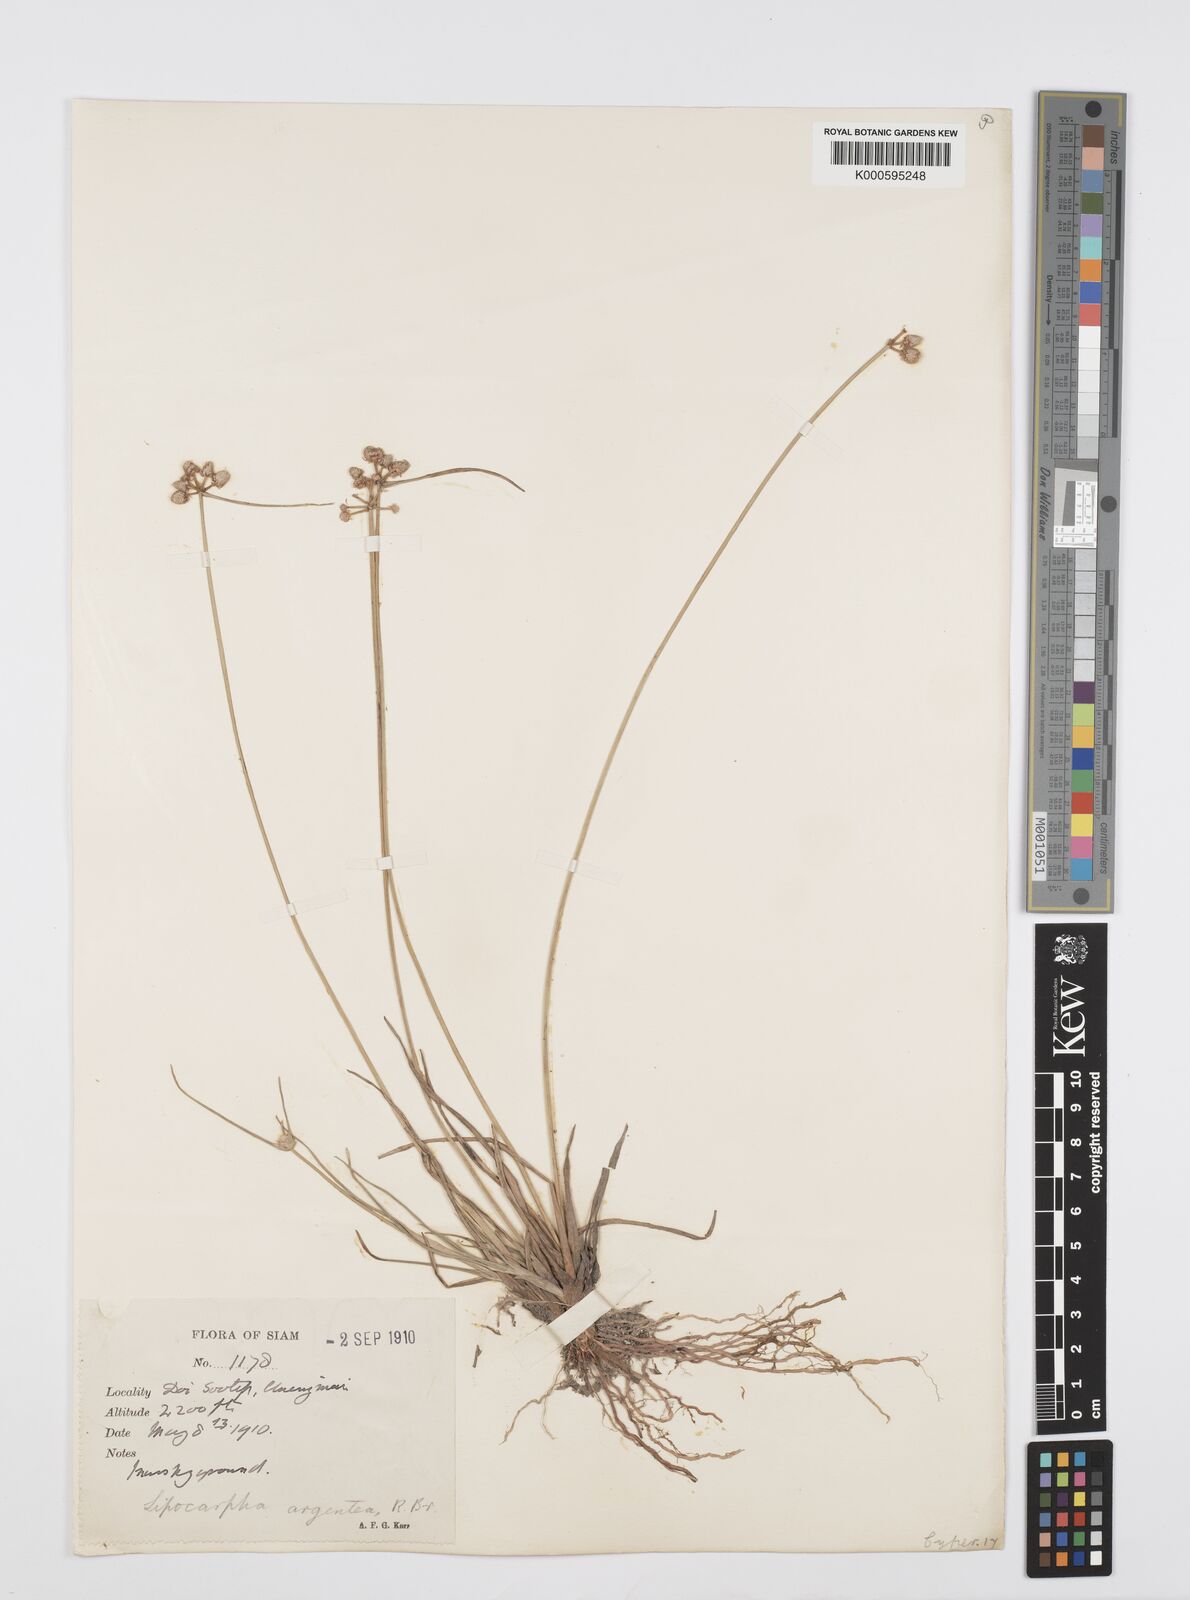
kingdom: Plantae
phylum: Tracheophyta
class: Liliopsida
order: Poales
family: Cyperaceae
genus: Cyperus
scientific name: Cyperus albescens
